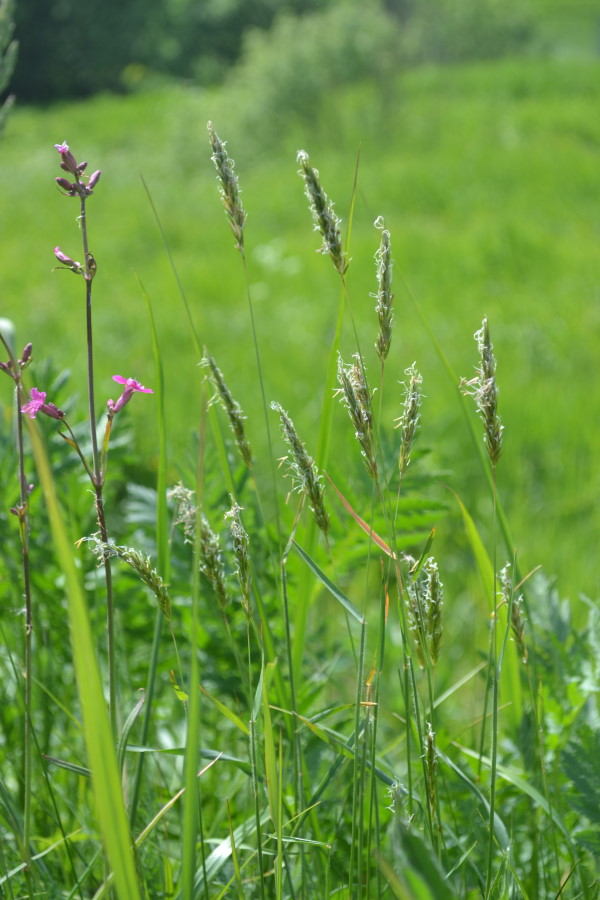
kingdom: Plantae
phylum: Tracheophyta
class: Liliopsida
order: Poales
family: Poaceae
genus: Alopecurus
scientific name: Alopecurus pratensis
